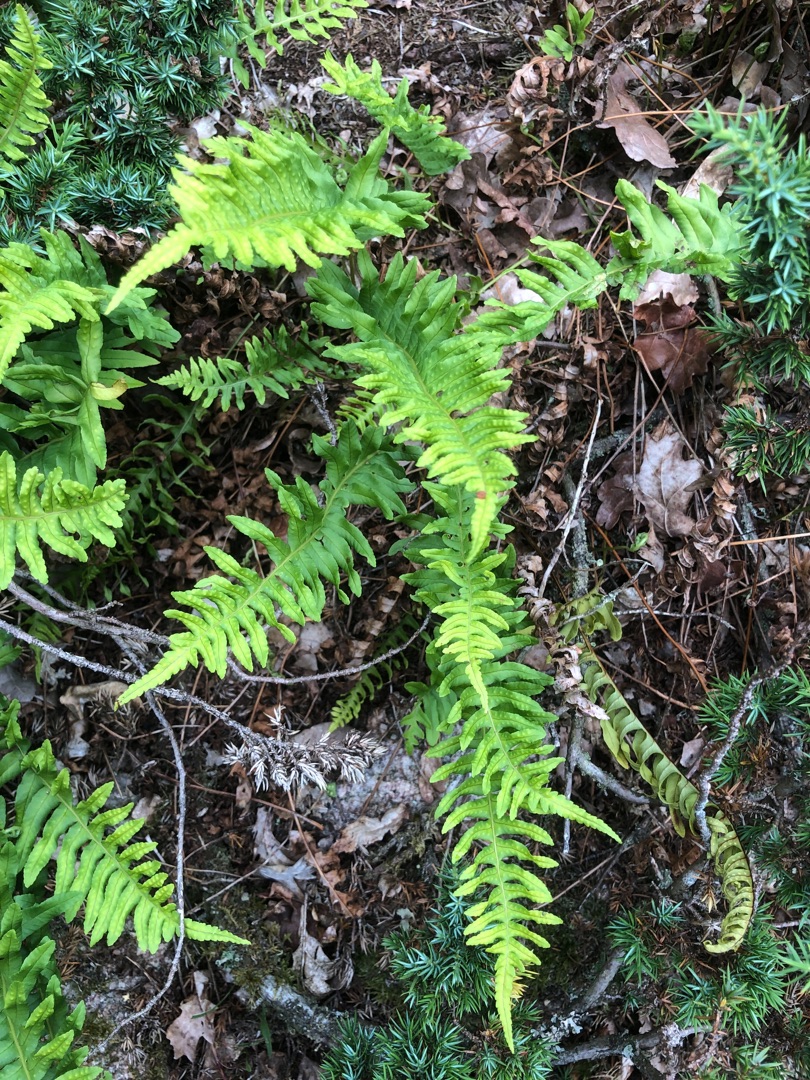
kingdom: Plantae
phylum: Tracheophyta
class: Polypodiopsida
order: Polypodiales
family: Polypodiaceae
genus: Polypodium
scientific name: Polypodium vulgare
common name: Almindelig engelsød
